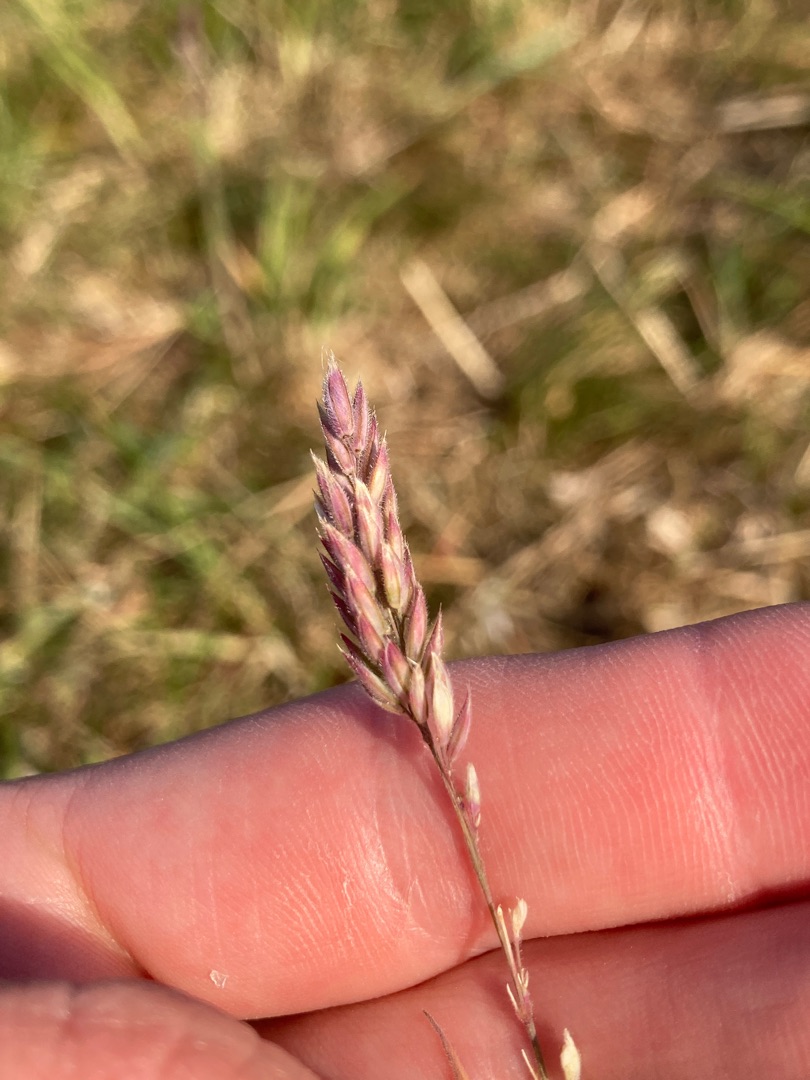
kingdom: Plantae
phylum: Tracheophyta
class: Liliopsida
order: Poales
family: Poaceae
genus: Holcus
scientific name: Holcus lanatus
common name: Fløjlsgræs
